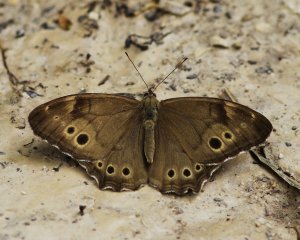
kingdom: Animalia
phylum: Arthropoda
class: Insecta
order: Lepidoptera
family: Nymphalidae
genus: Lethe
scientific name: Lethe anthedon
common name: Northern Pearly-Eye
